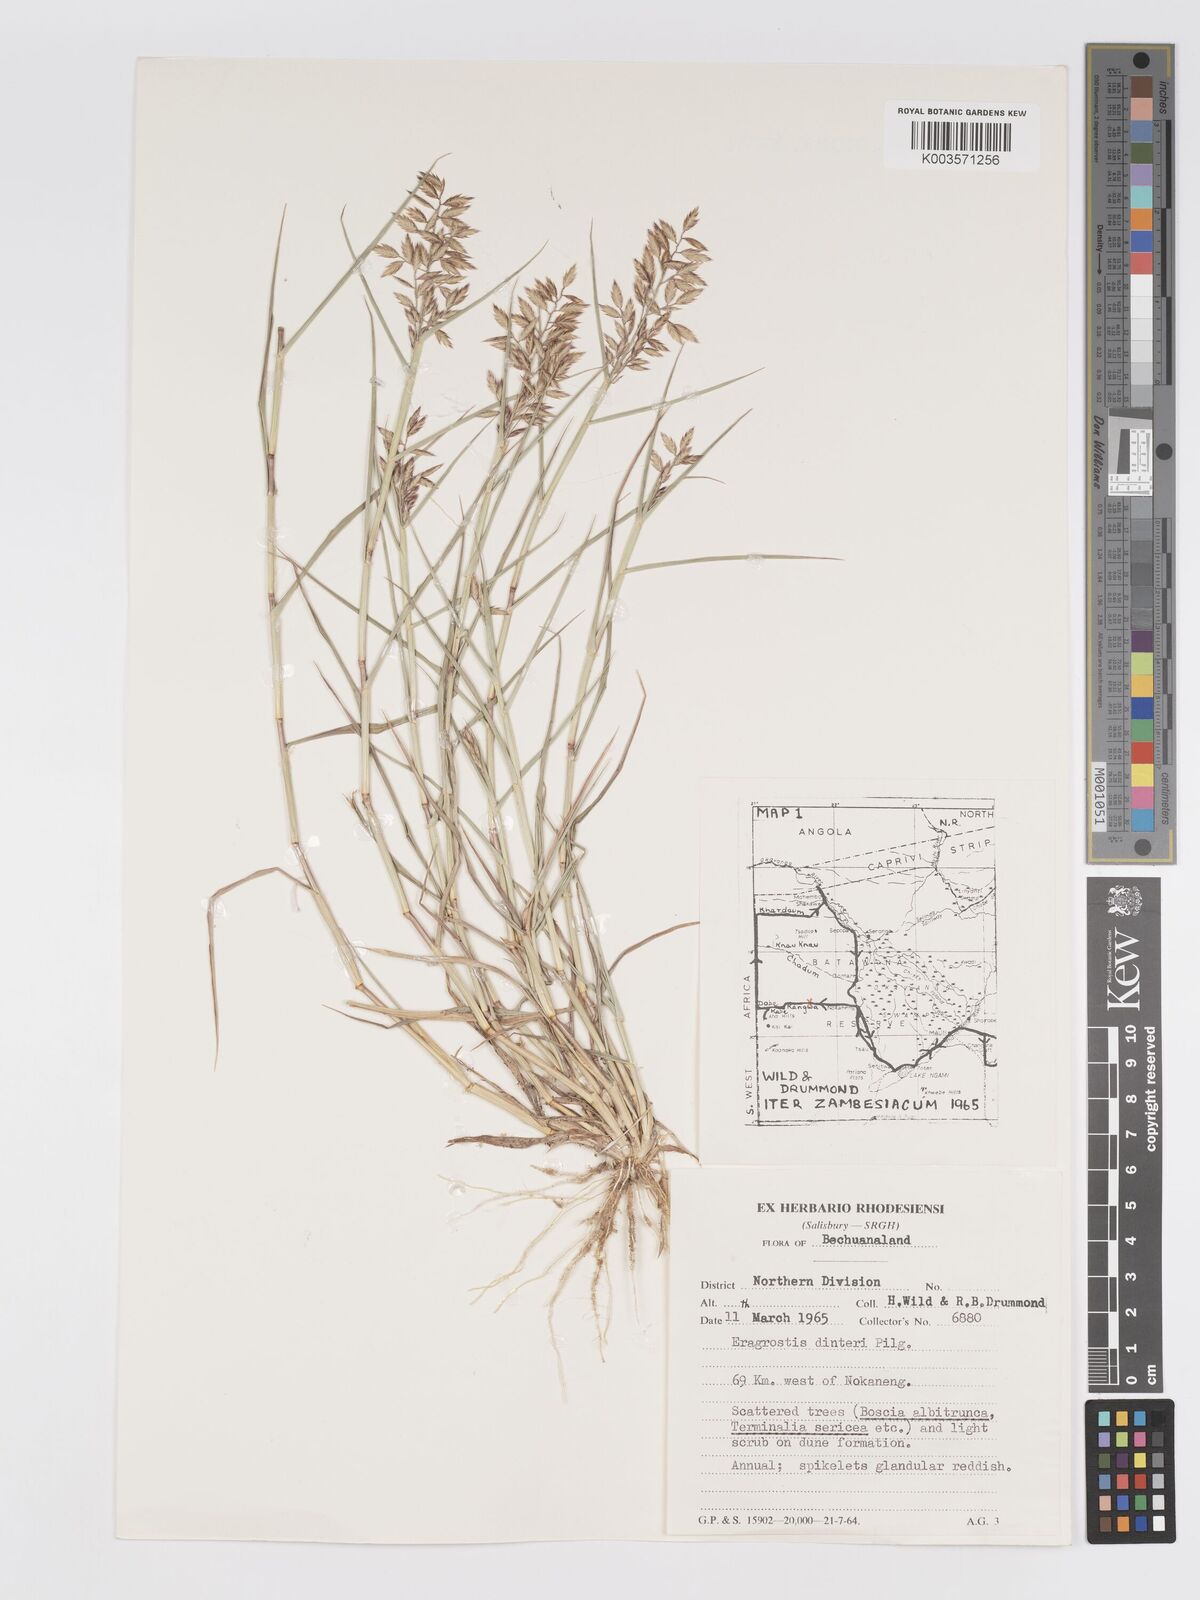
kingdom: Plantae
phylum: Tracheophyta
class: Liliopsida
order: Poales
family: Poaceae
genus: Eragrostis
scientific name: Eragrostis dinteri
